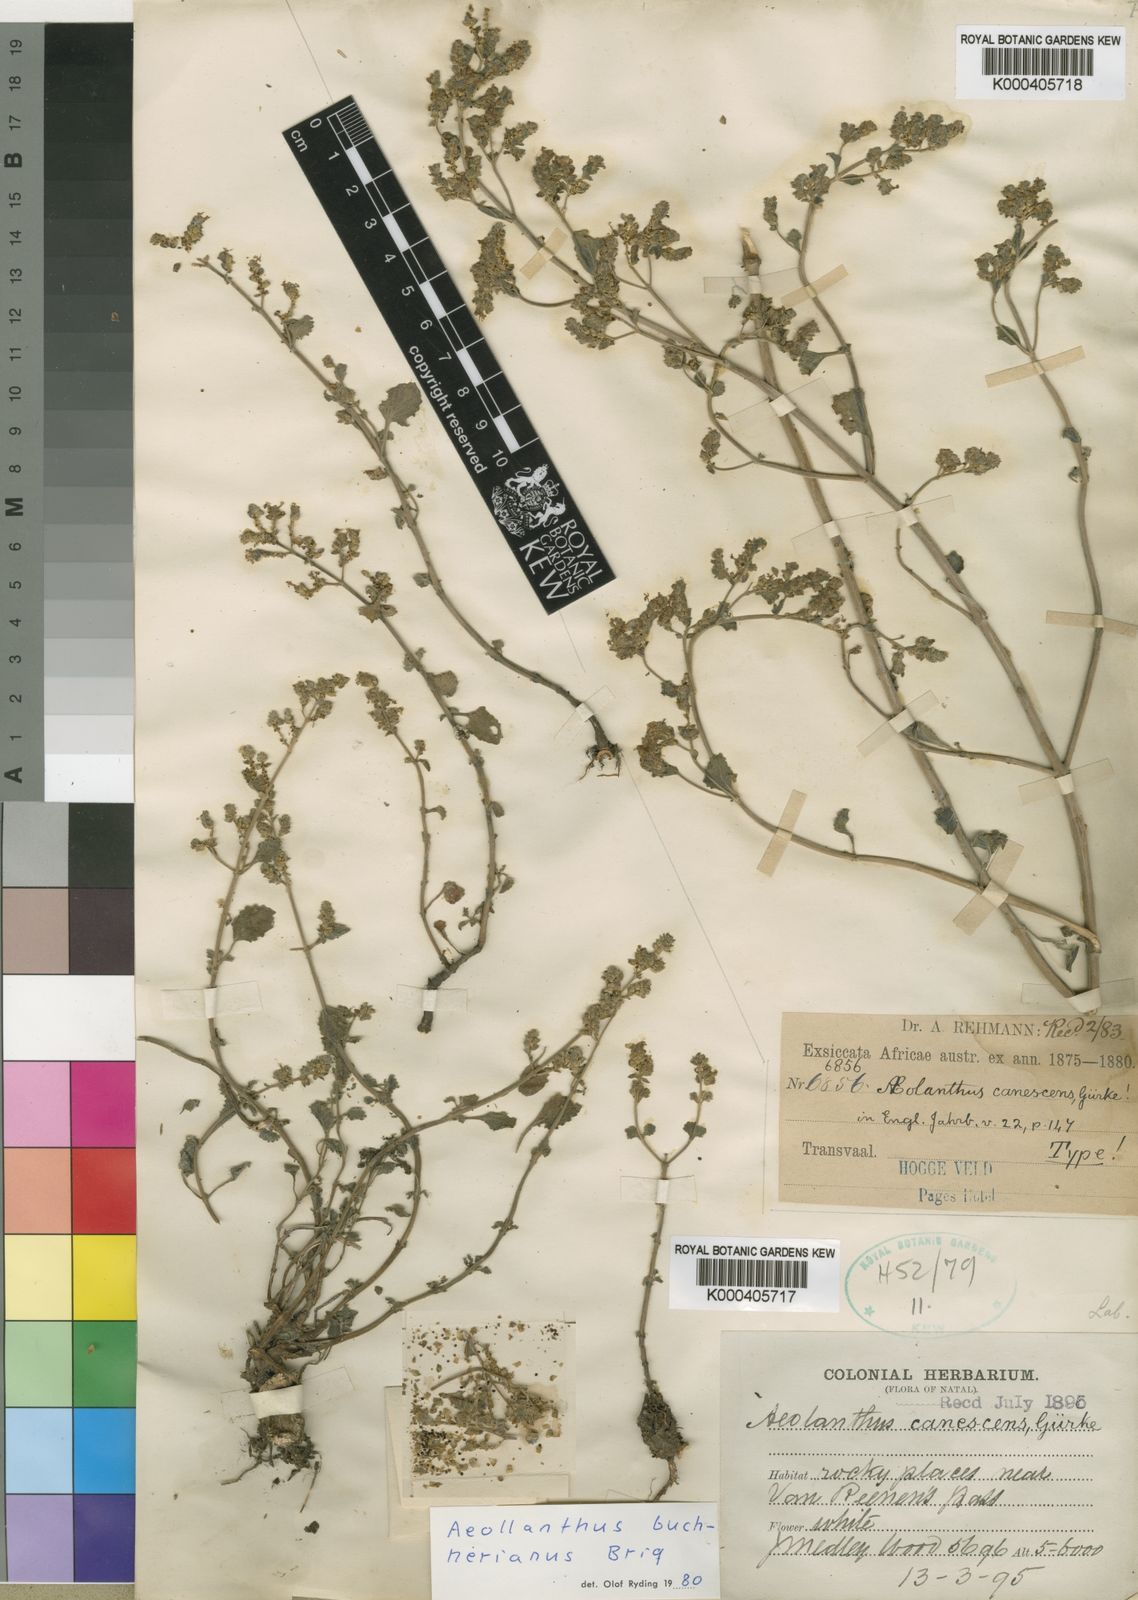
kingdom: Plantae
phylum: Tracheophyta
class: Magnoliopsida
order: Lamiales
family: Lamiaceae
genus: Aeollanthus
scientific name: Aeollanthus buchnerianus
